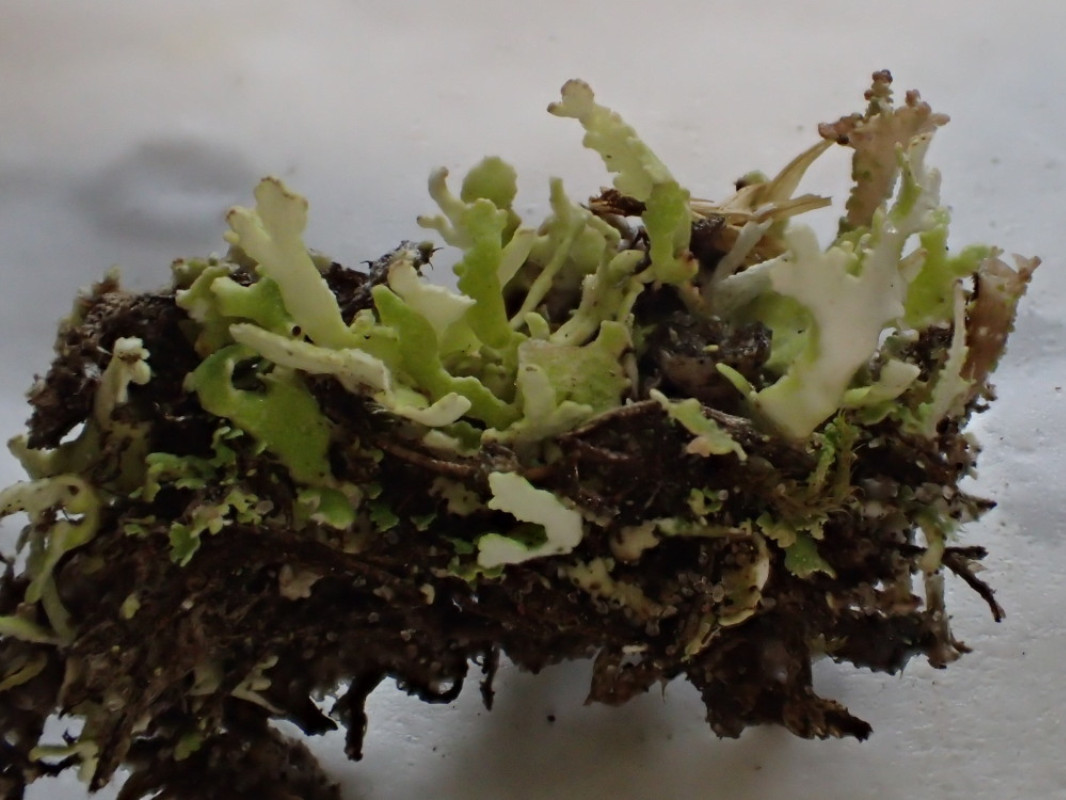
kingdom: Fungi
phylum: Ascomycota
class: Lecanoromycetes
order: Lecanorales
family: Cladoniaceae
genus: Cladonia
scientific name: Cladonia foliacea
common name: fliget bægerlav
